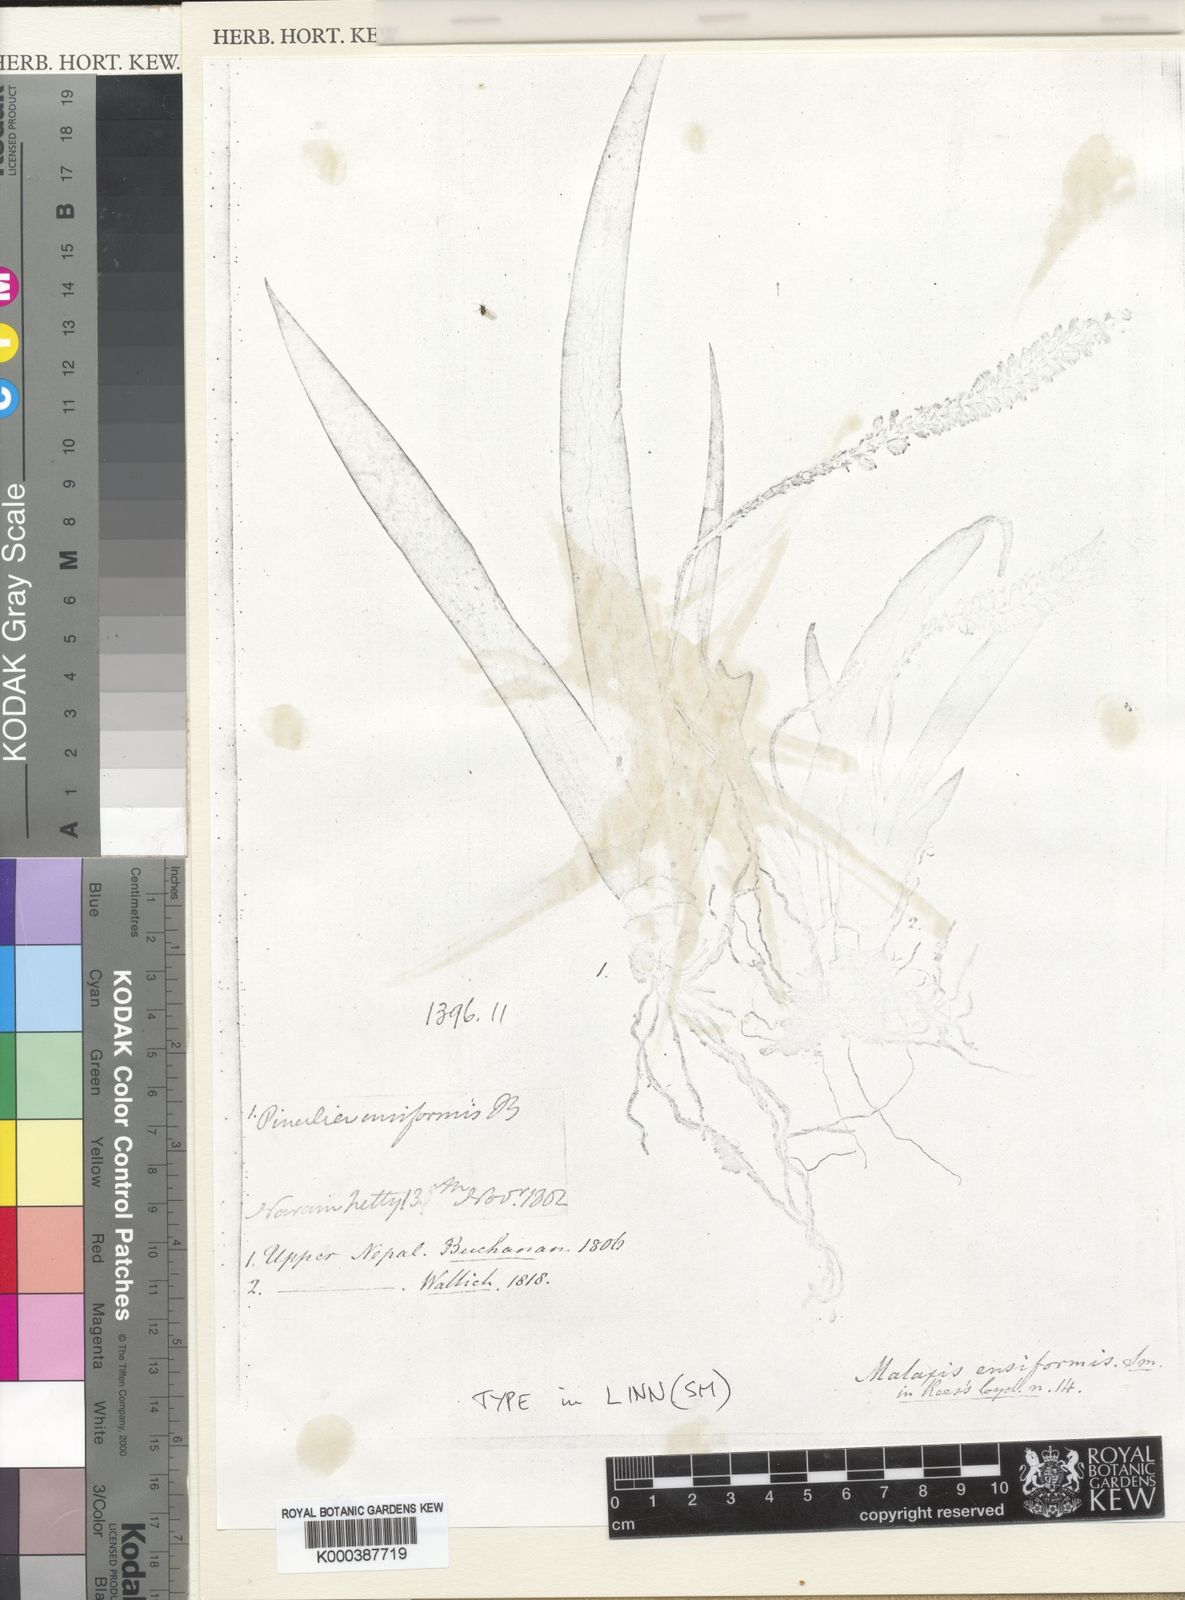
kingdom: Plantae
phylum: Tracheophyta
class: Liliopsida
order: Asparagales
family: Orchidaceae
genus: Oberonia
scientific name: Oberonia ensiformis
